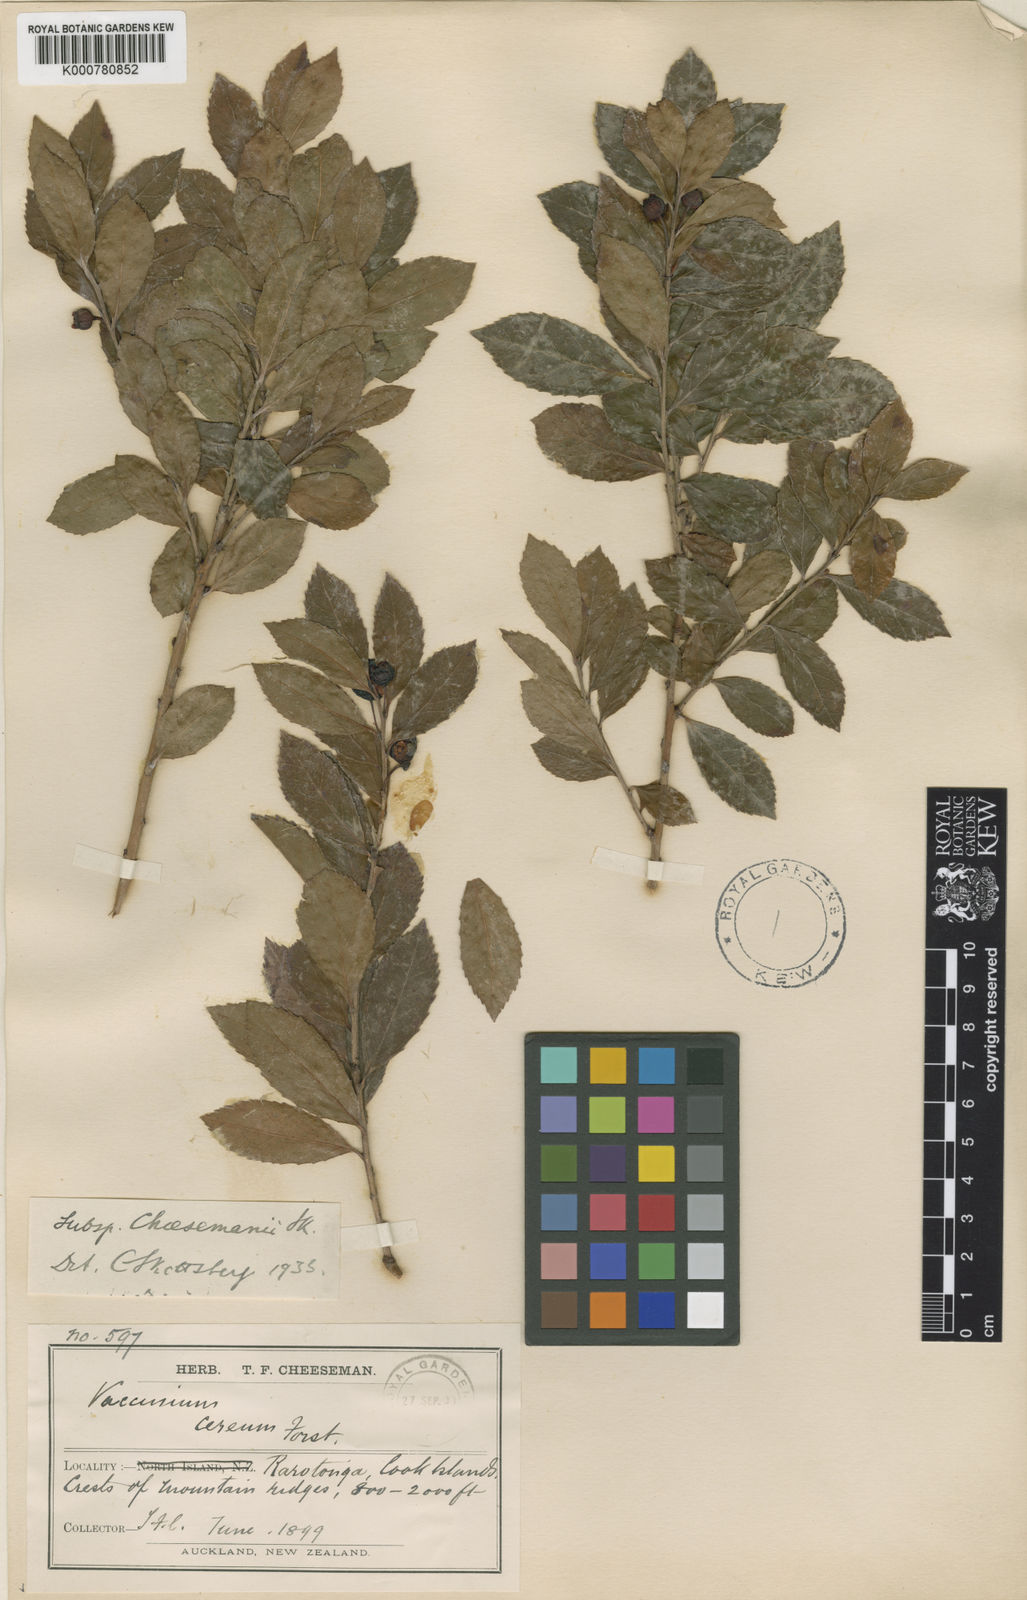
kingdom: Plantae
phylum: Tracheophyta
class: Magnoliopsida
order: Ericales
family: Ericaceae
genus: Vaccinium
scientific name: Vaccinium cereum
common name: East polynesian blueberry
